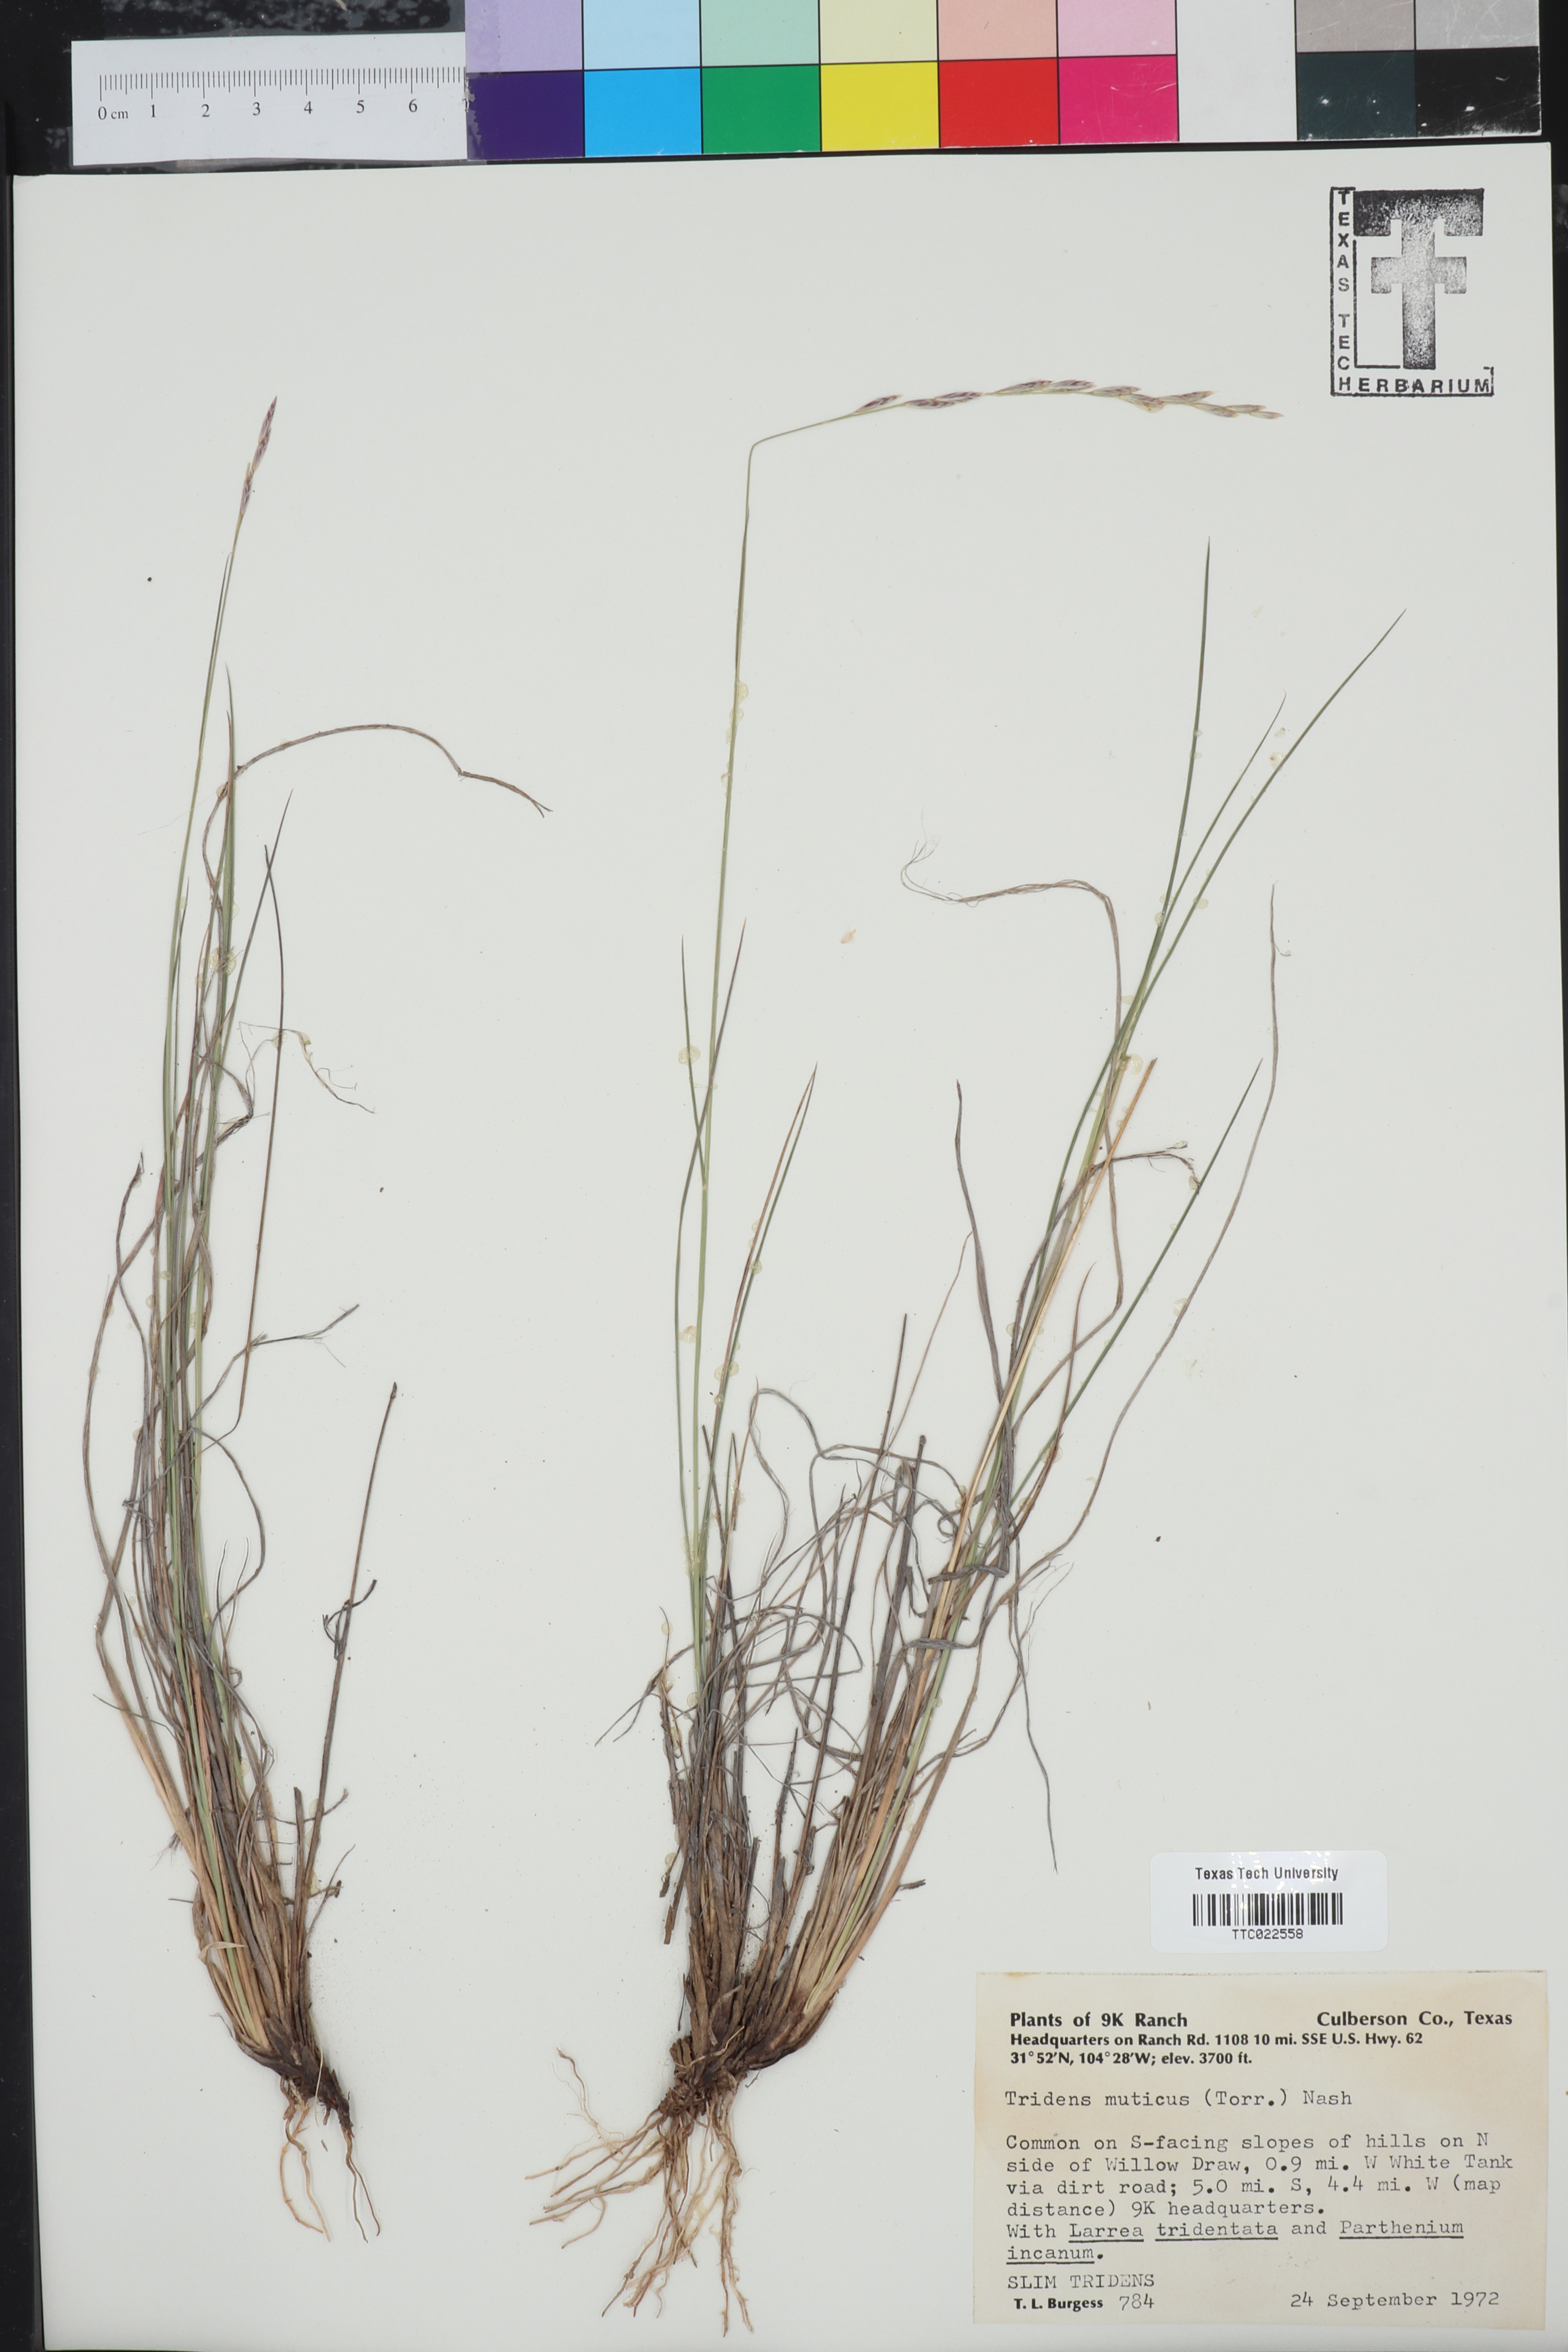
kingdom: Plantae
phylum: Tracheophyta
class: Liliopsida
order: Poales
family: Poaceae
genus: Tridentopsis
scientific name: Tridentopsis mutica
